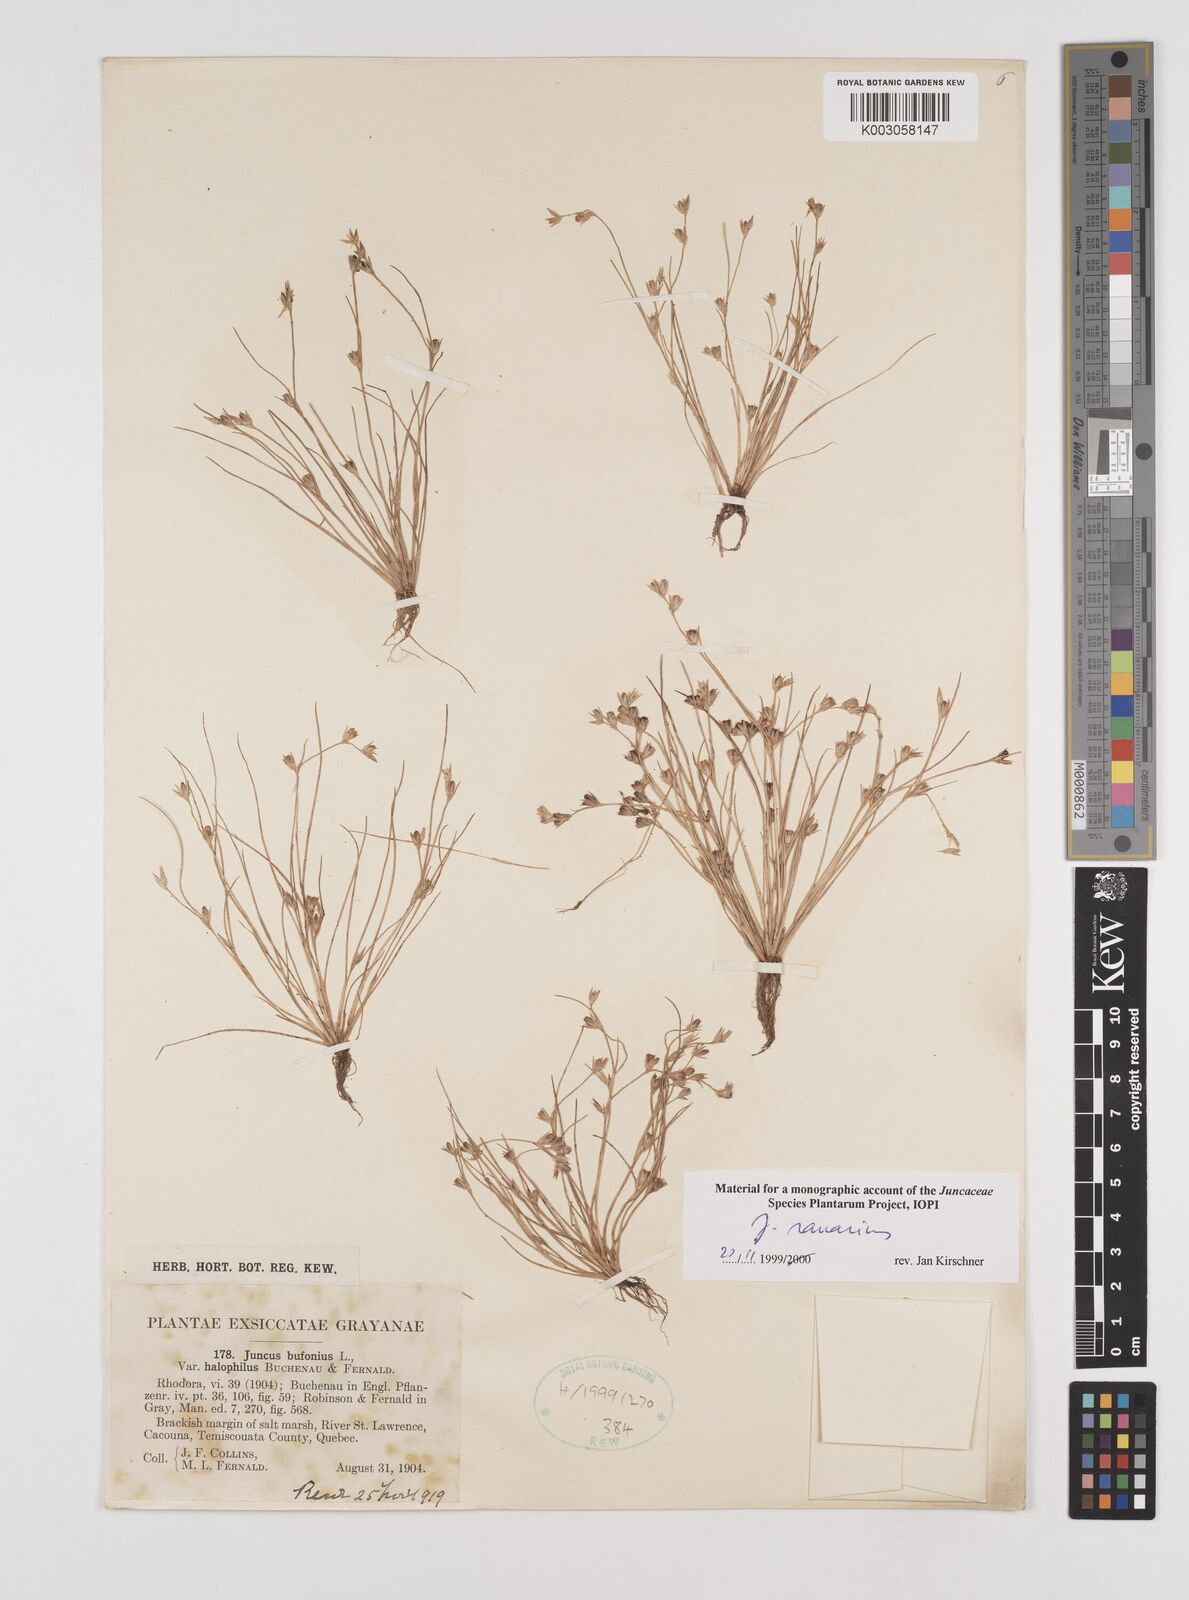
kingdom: Plantae
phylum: Tracheophyta
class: Liliopsida
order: Poales
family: Juncaceae
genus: Juncus
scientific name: Juncus ranarius
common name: Frog rush
